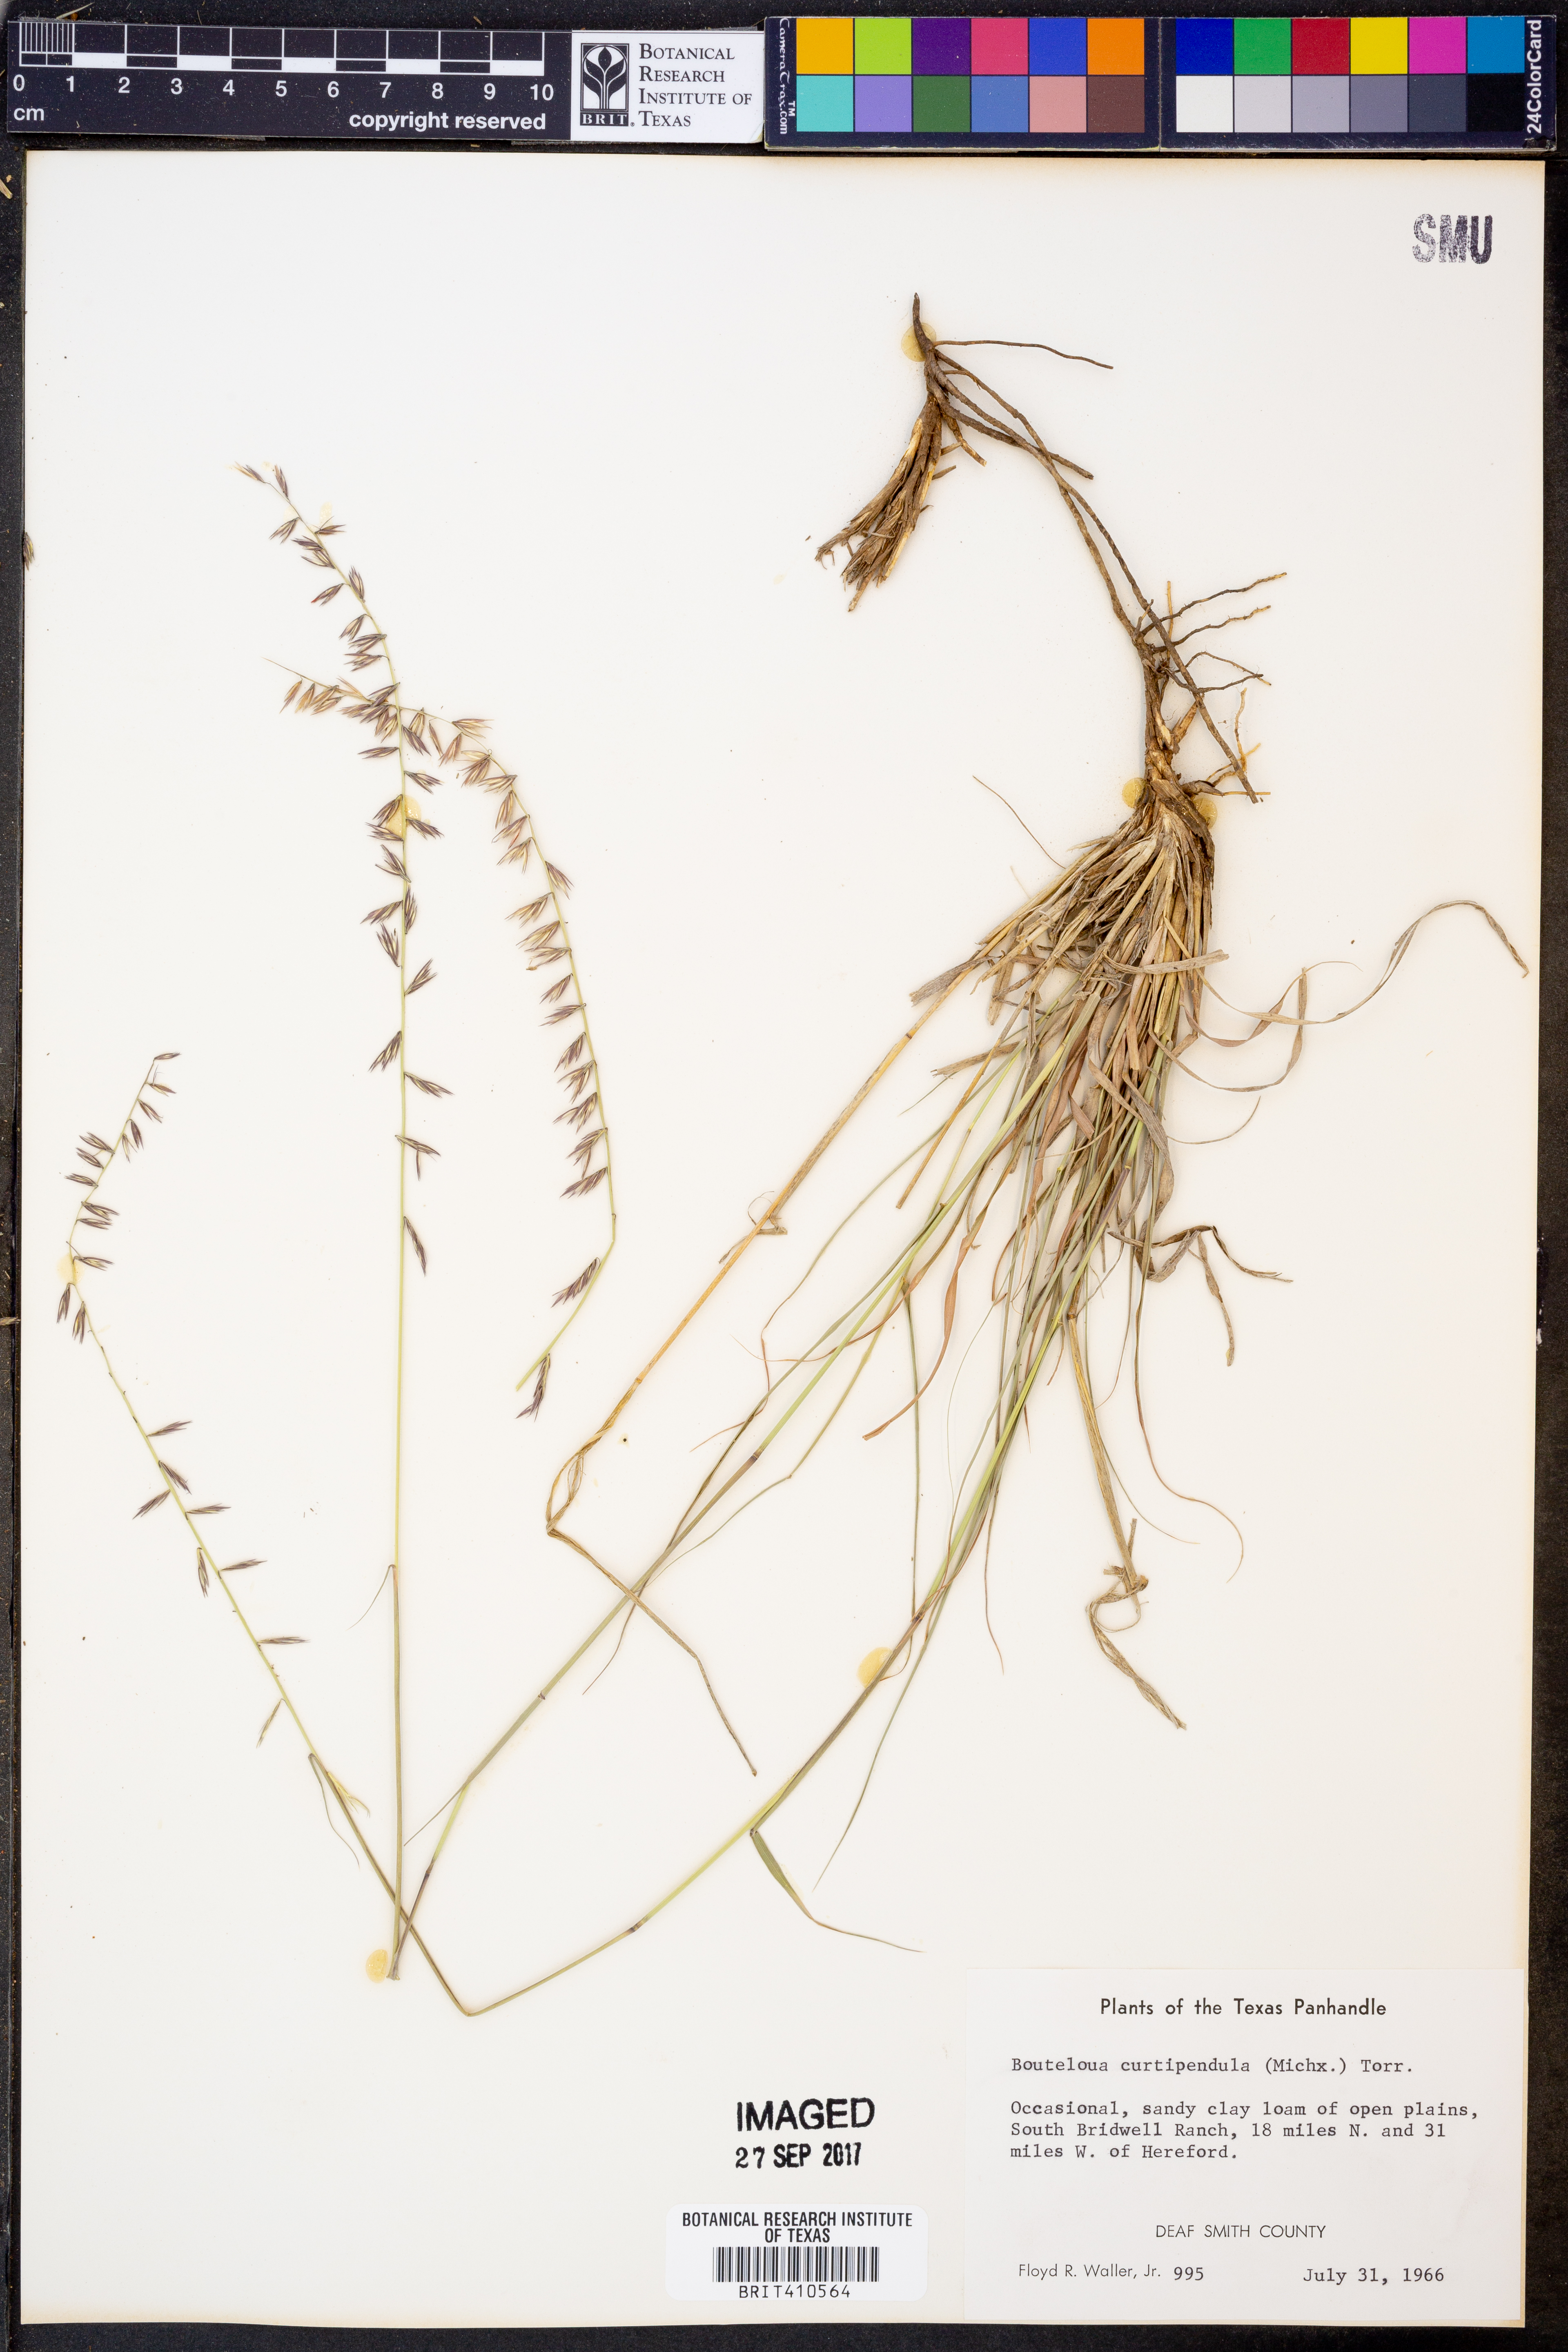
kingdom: Plantae
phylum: Tracheophyta
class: Liliopsida
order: Poales
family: Poaceae
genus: Bouteloua
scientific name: Bouteloua curtipendula
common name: Side-oats grama
